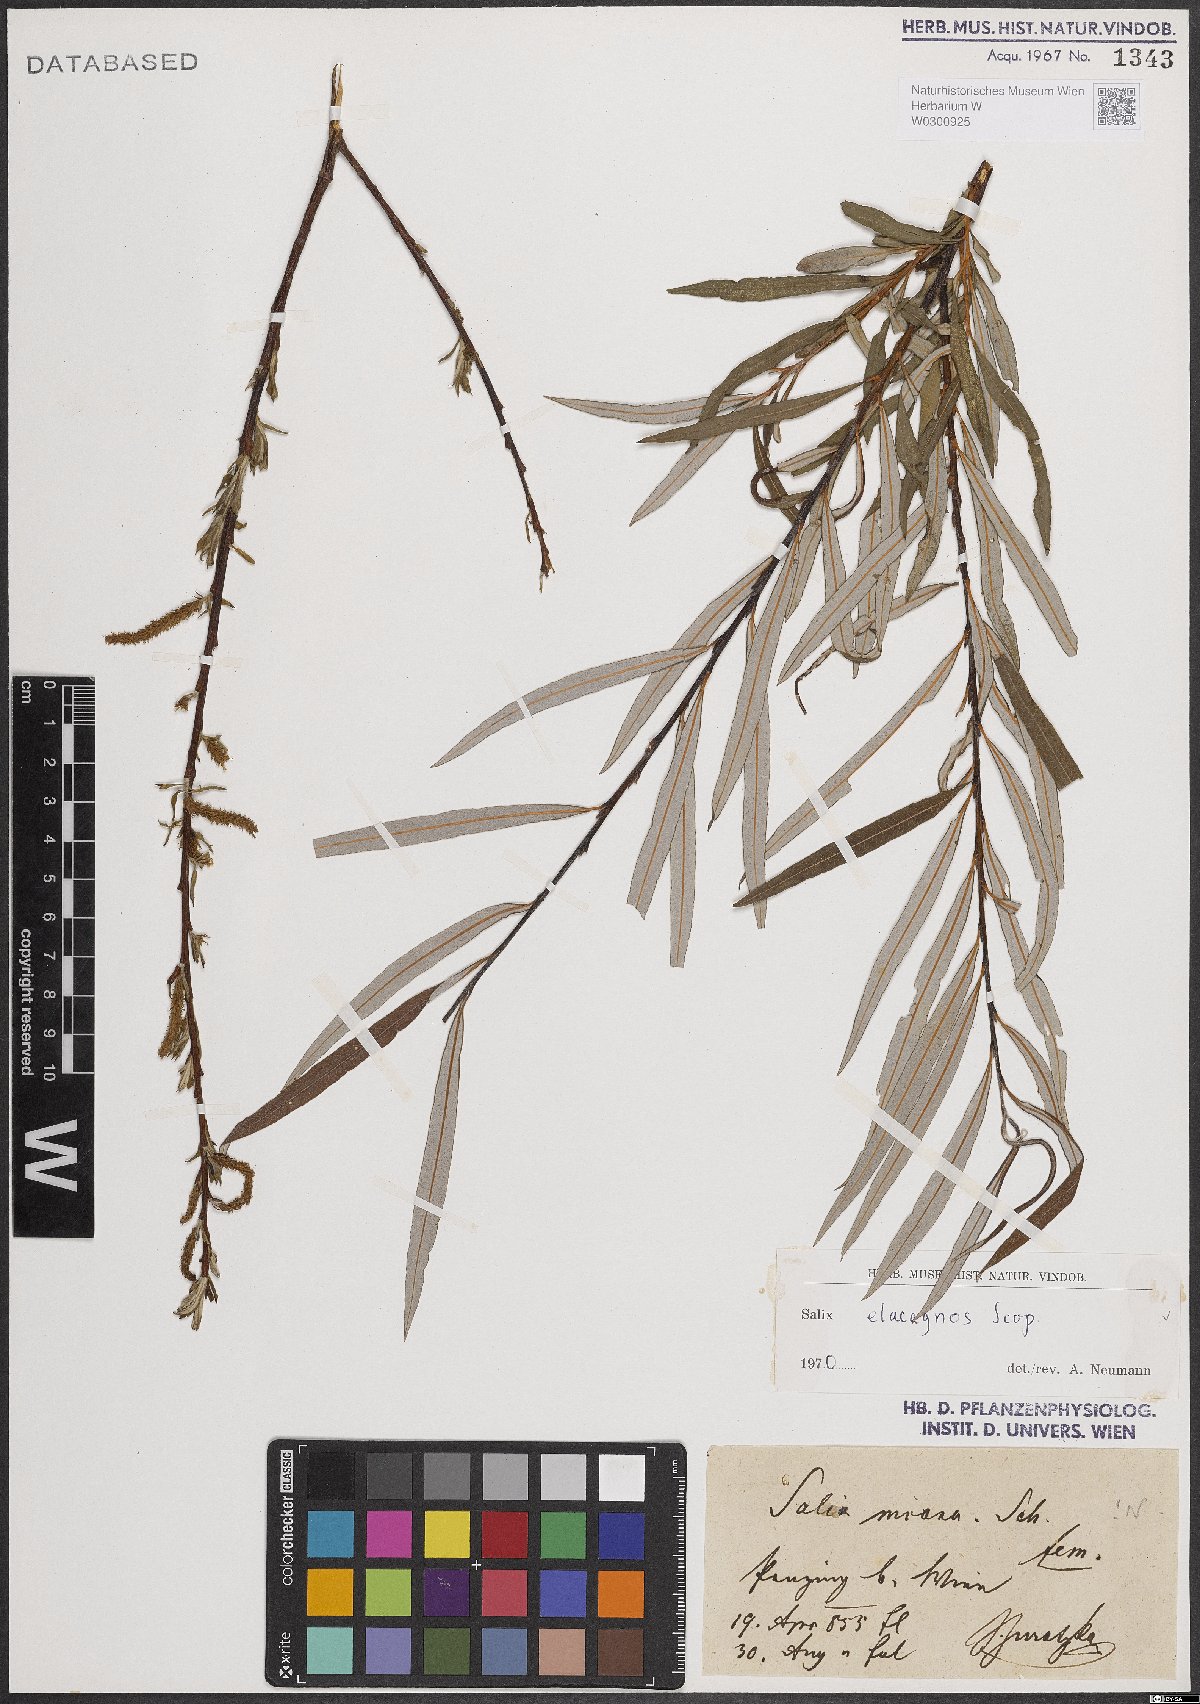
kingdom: Plantae
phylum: Tracheophyta
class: Magnoliopsida
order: Malpighiales
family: Salicaceae
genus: Salix
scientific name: Salix eleagnos
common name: Elaeagnus willow
